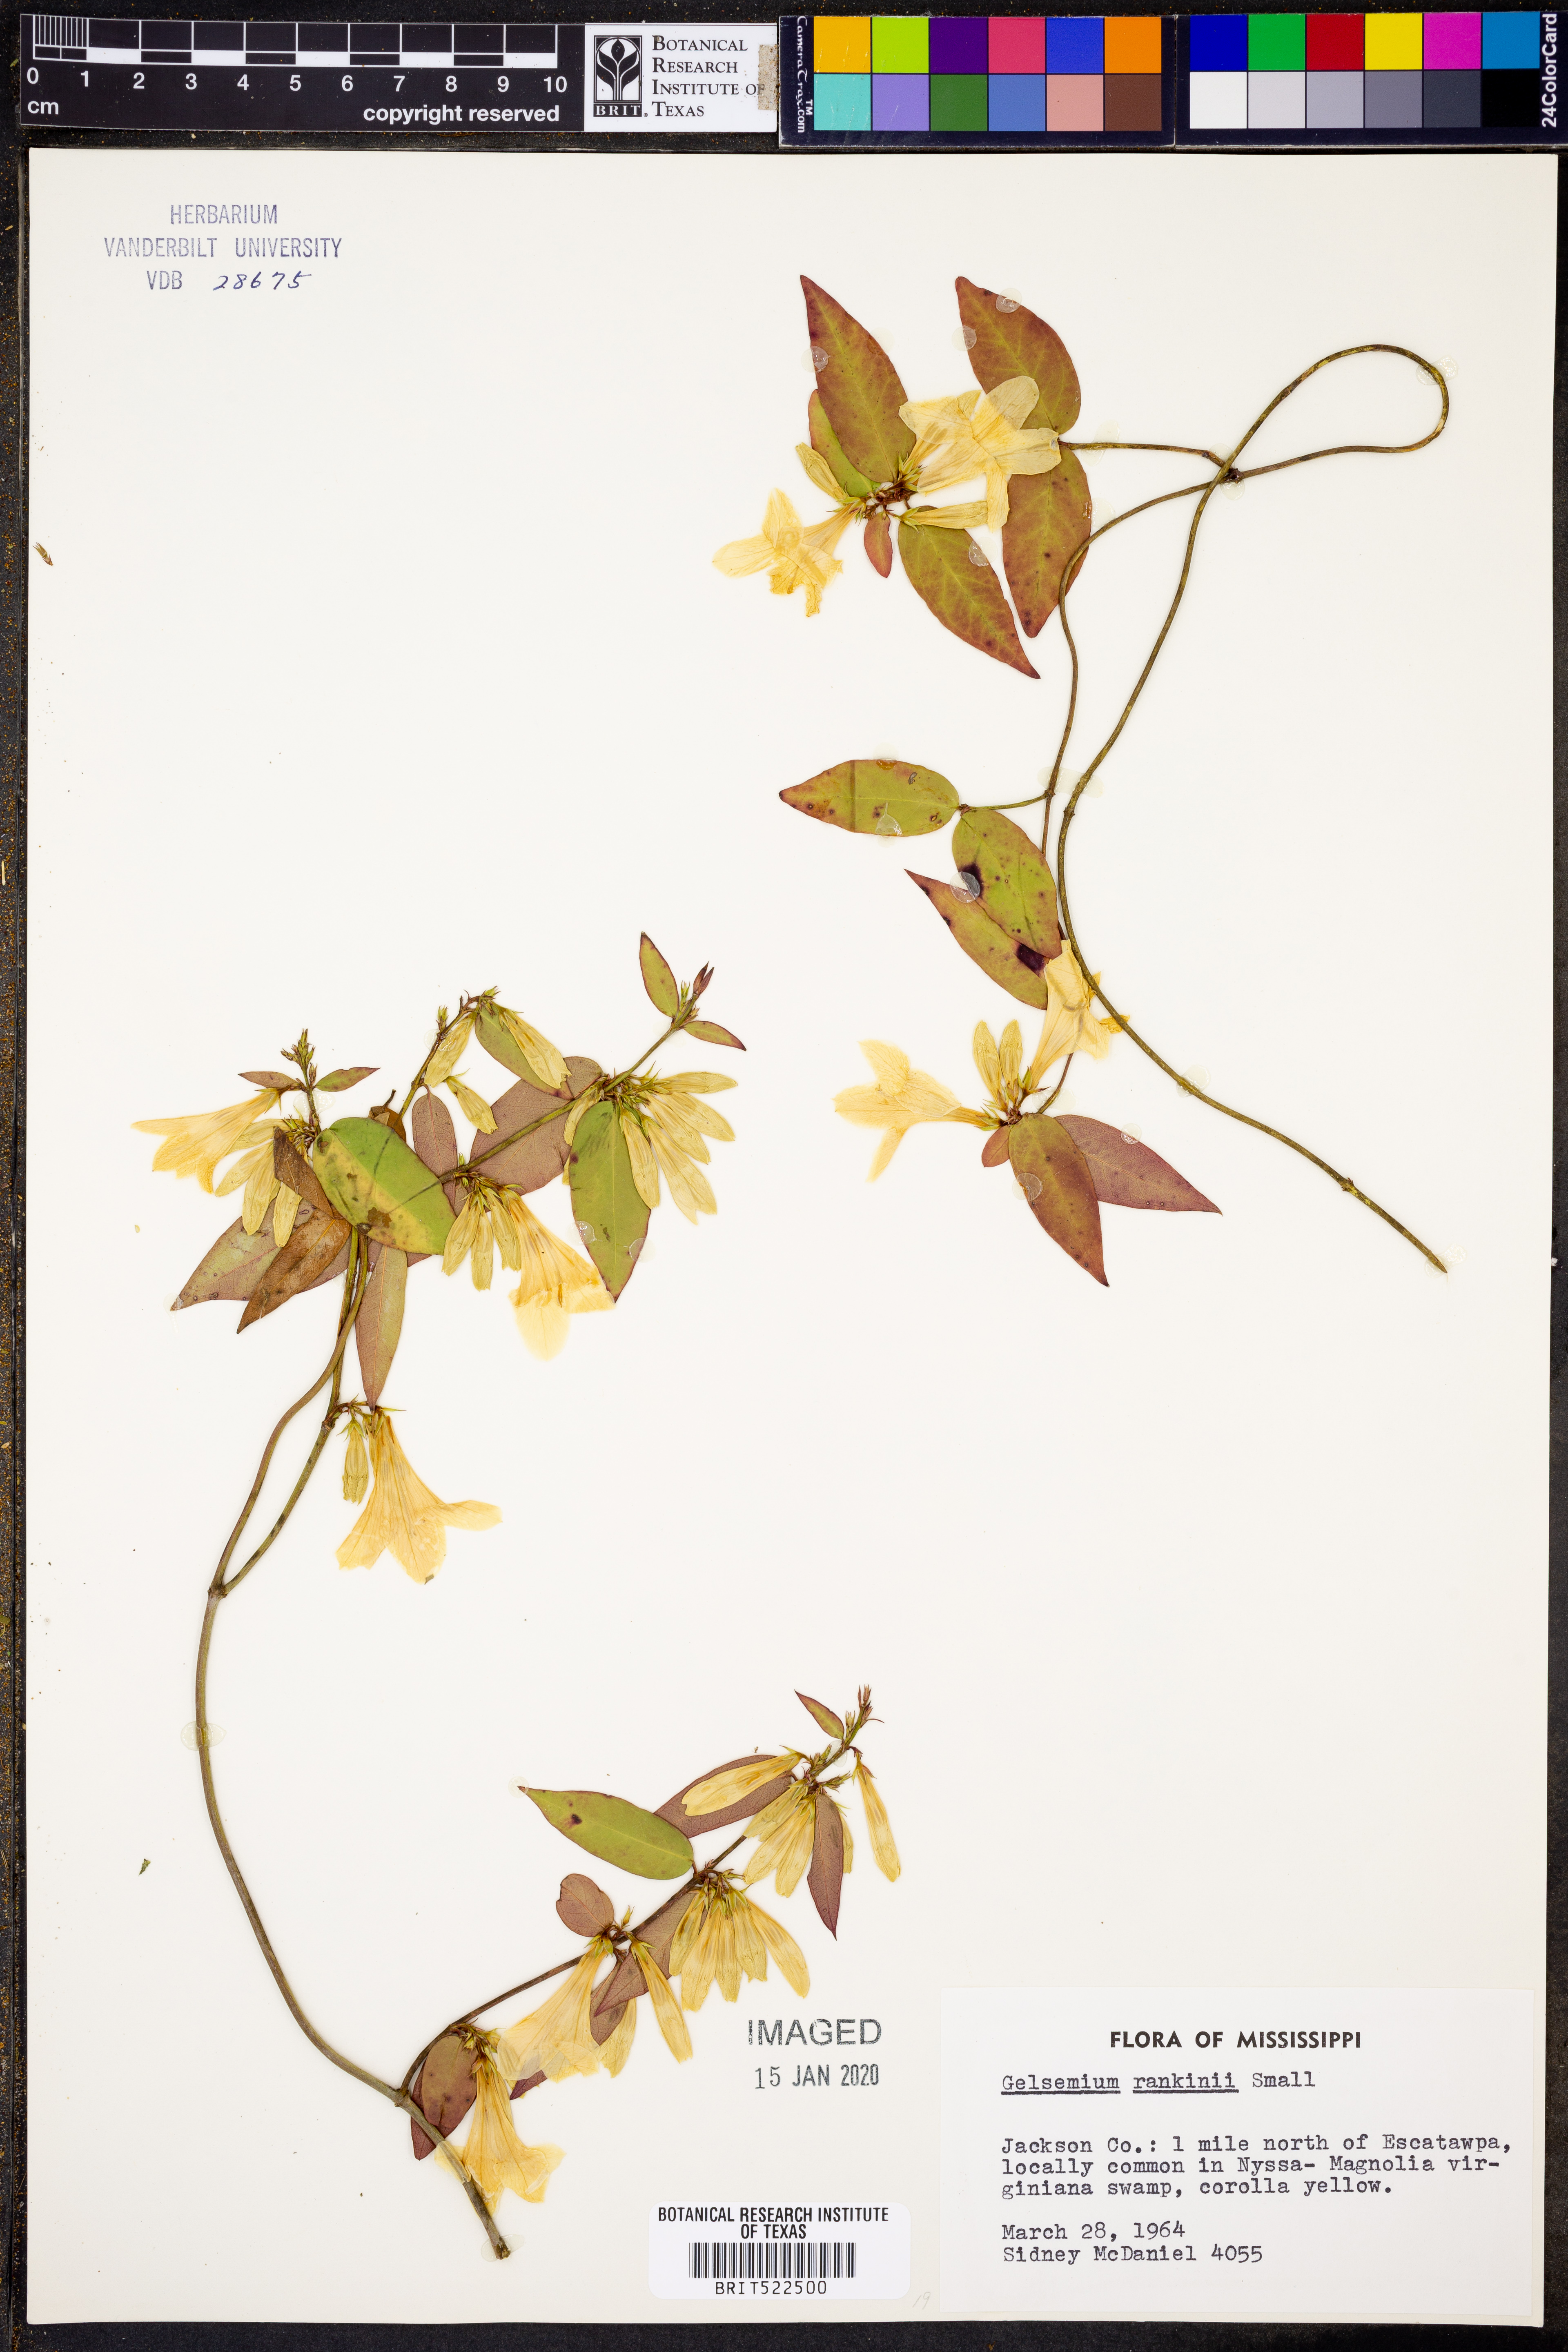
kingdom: Plantae
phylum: Tracheophyta
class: Magnoliopsida
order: Gentianales
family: Gelsemiaceae
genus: Gelsemium
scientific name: Gelsemium rankinii
